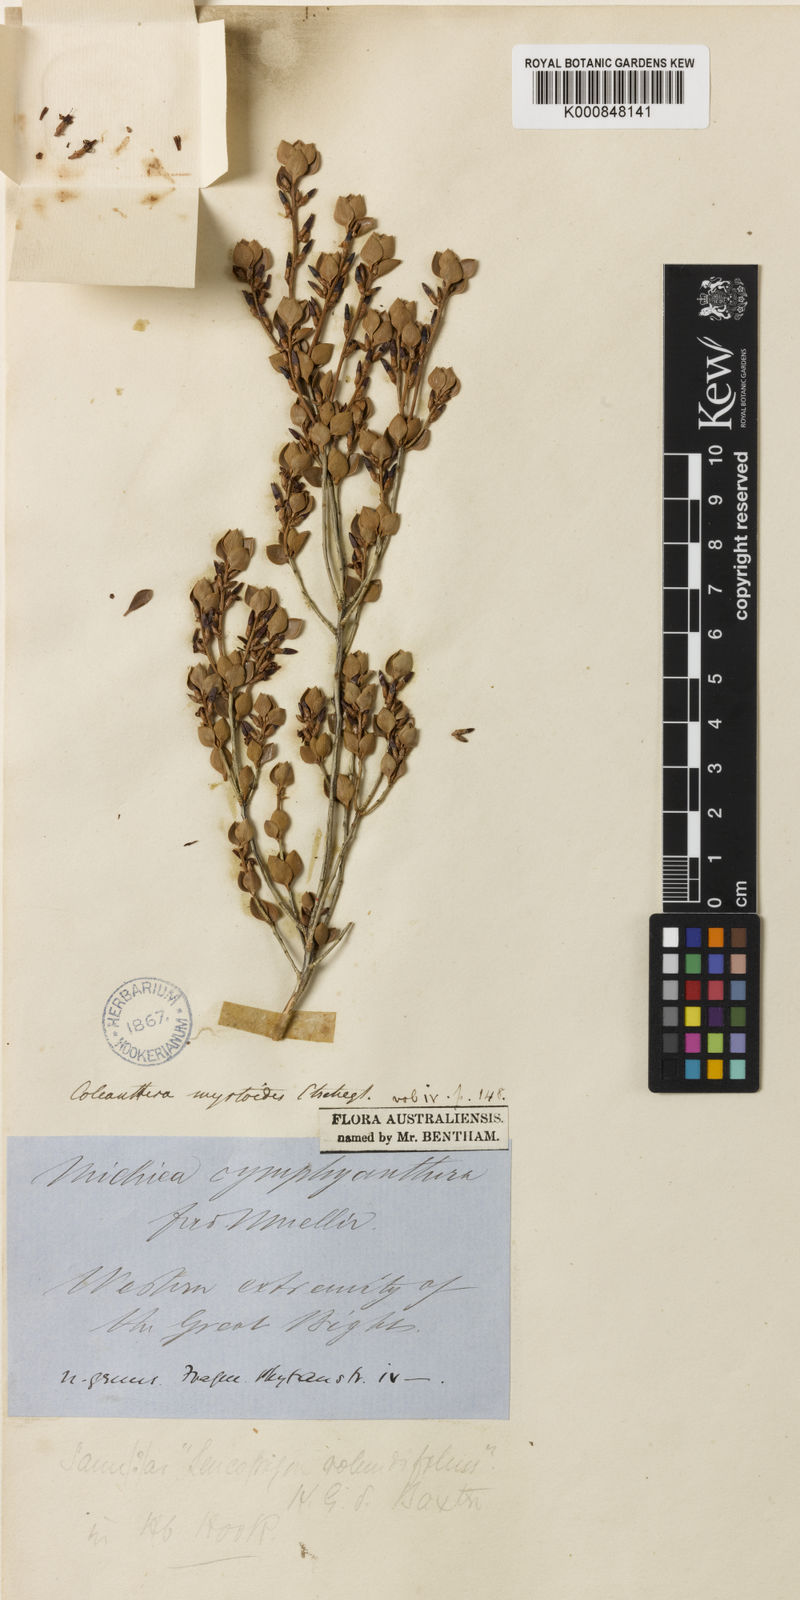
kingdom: Plantae
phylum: Tracheophyta
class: Magnoliopsida
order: Ericales
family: Ericaceae
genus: Styphelia
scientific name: Styphelia coelophylla
